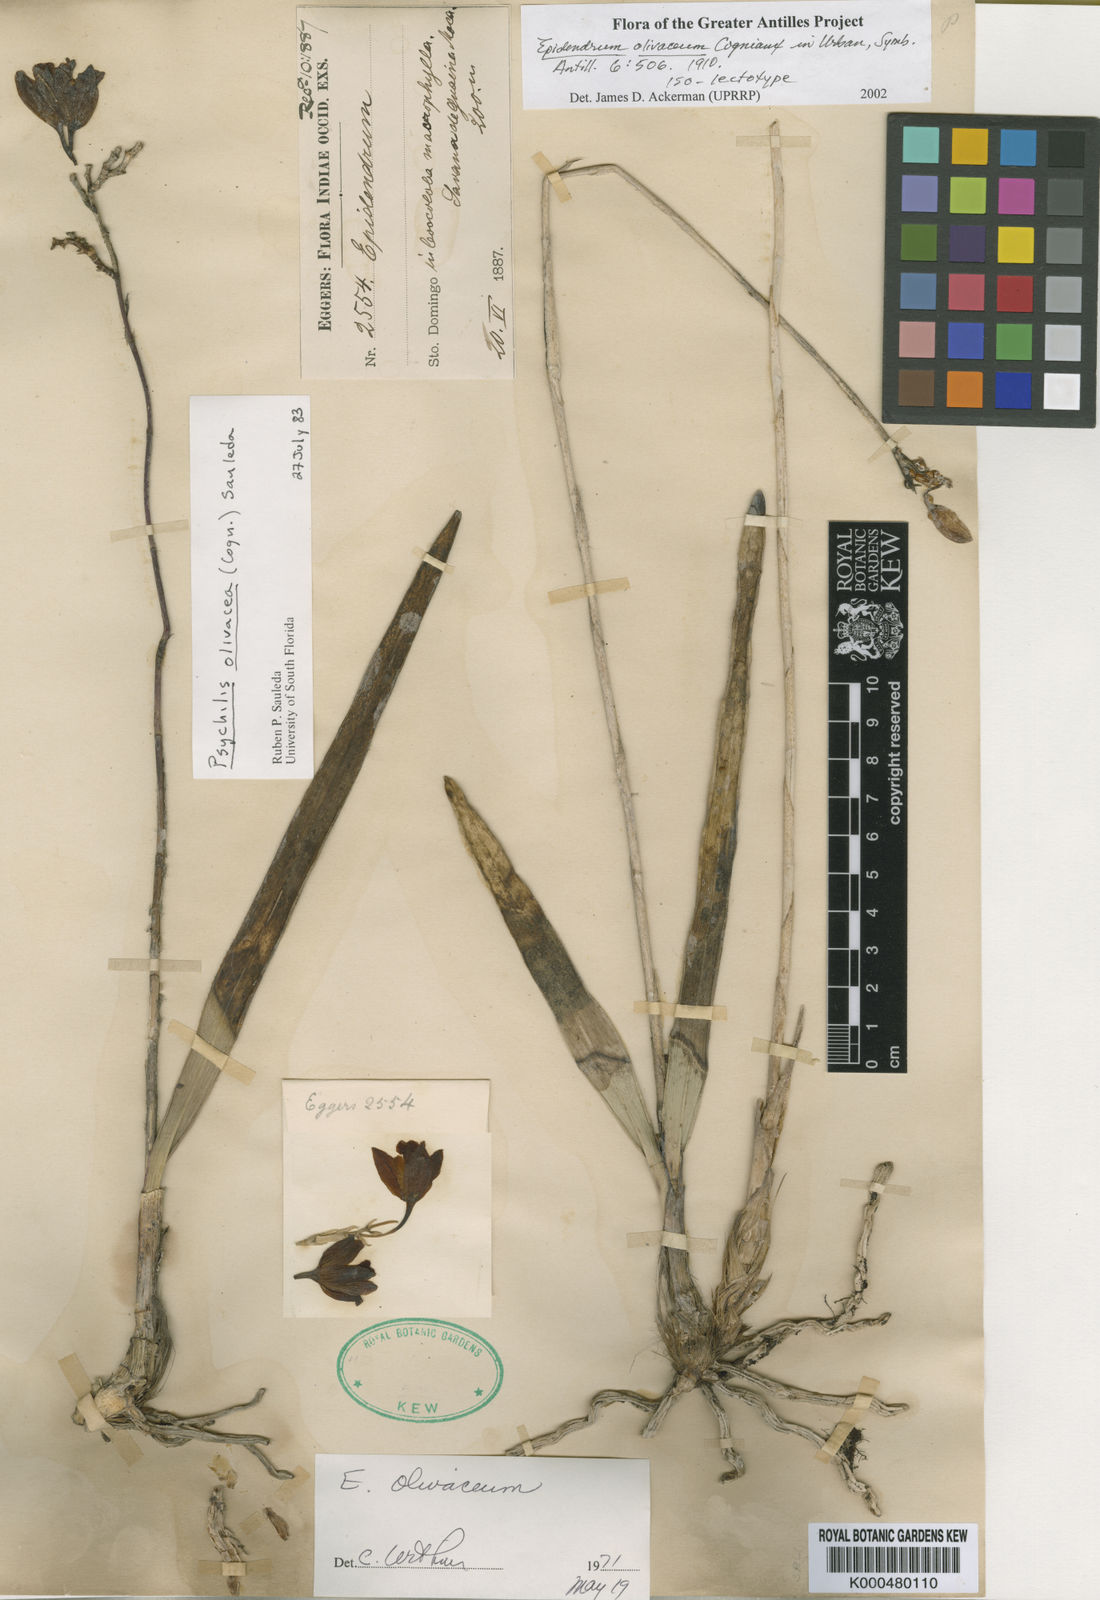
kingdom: Plantae
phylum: Tracheophyta
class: Liliopsida
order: Asparagales
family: Orchidaceae
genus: Psychilis
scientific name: Psychilis olivacea
